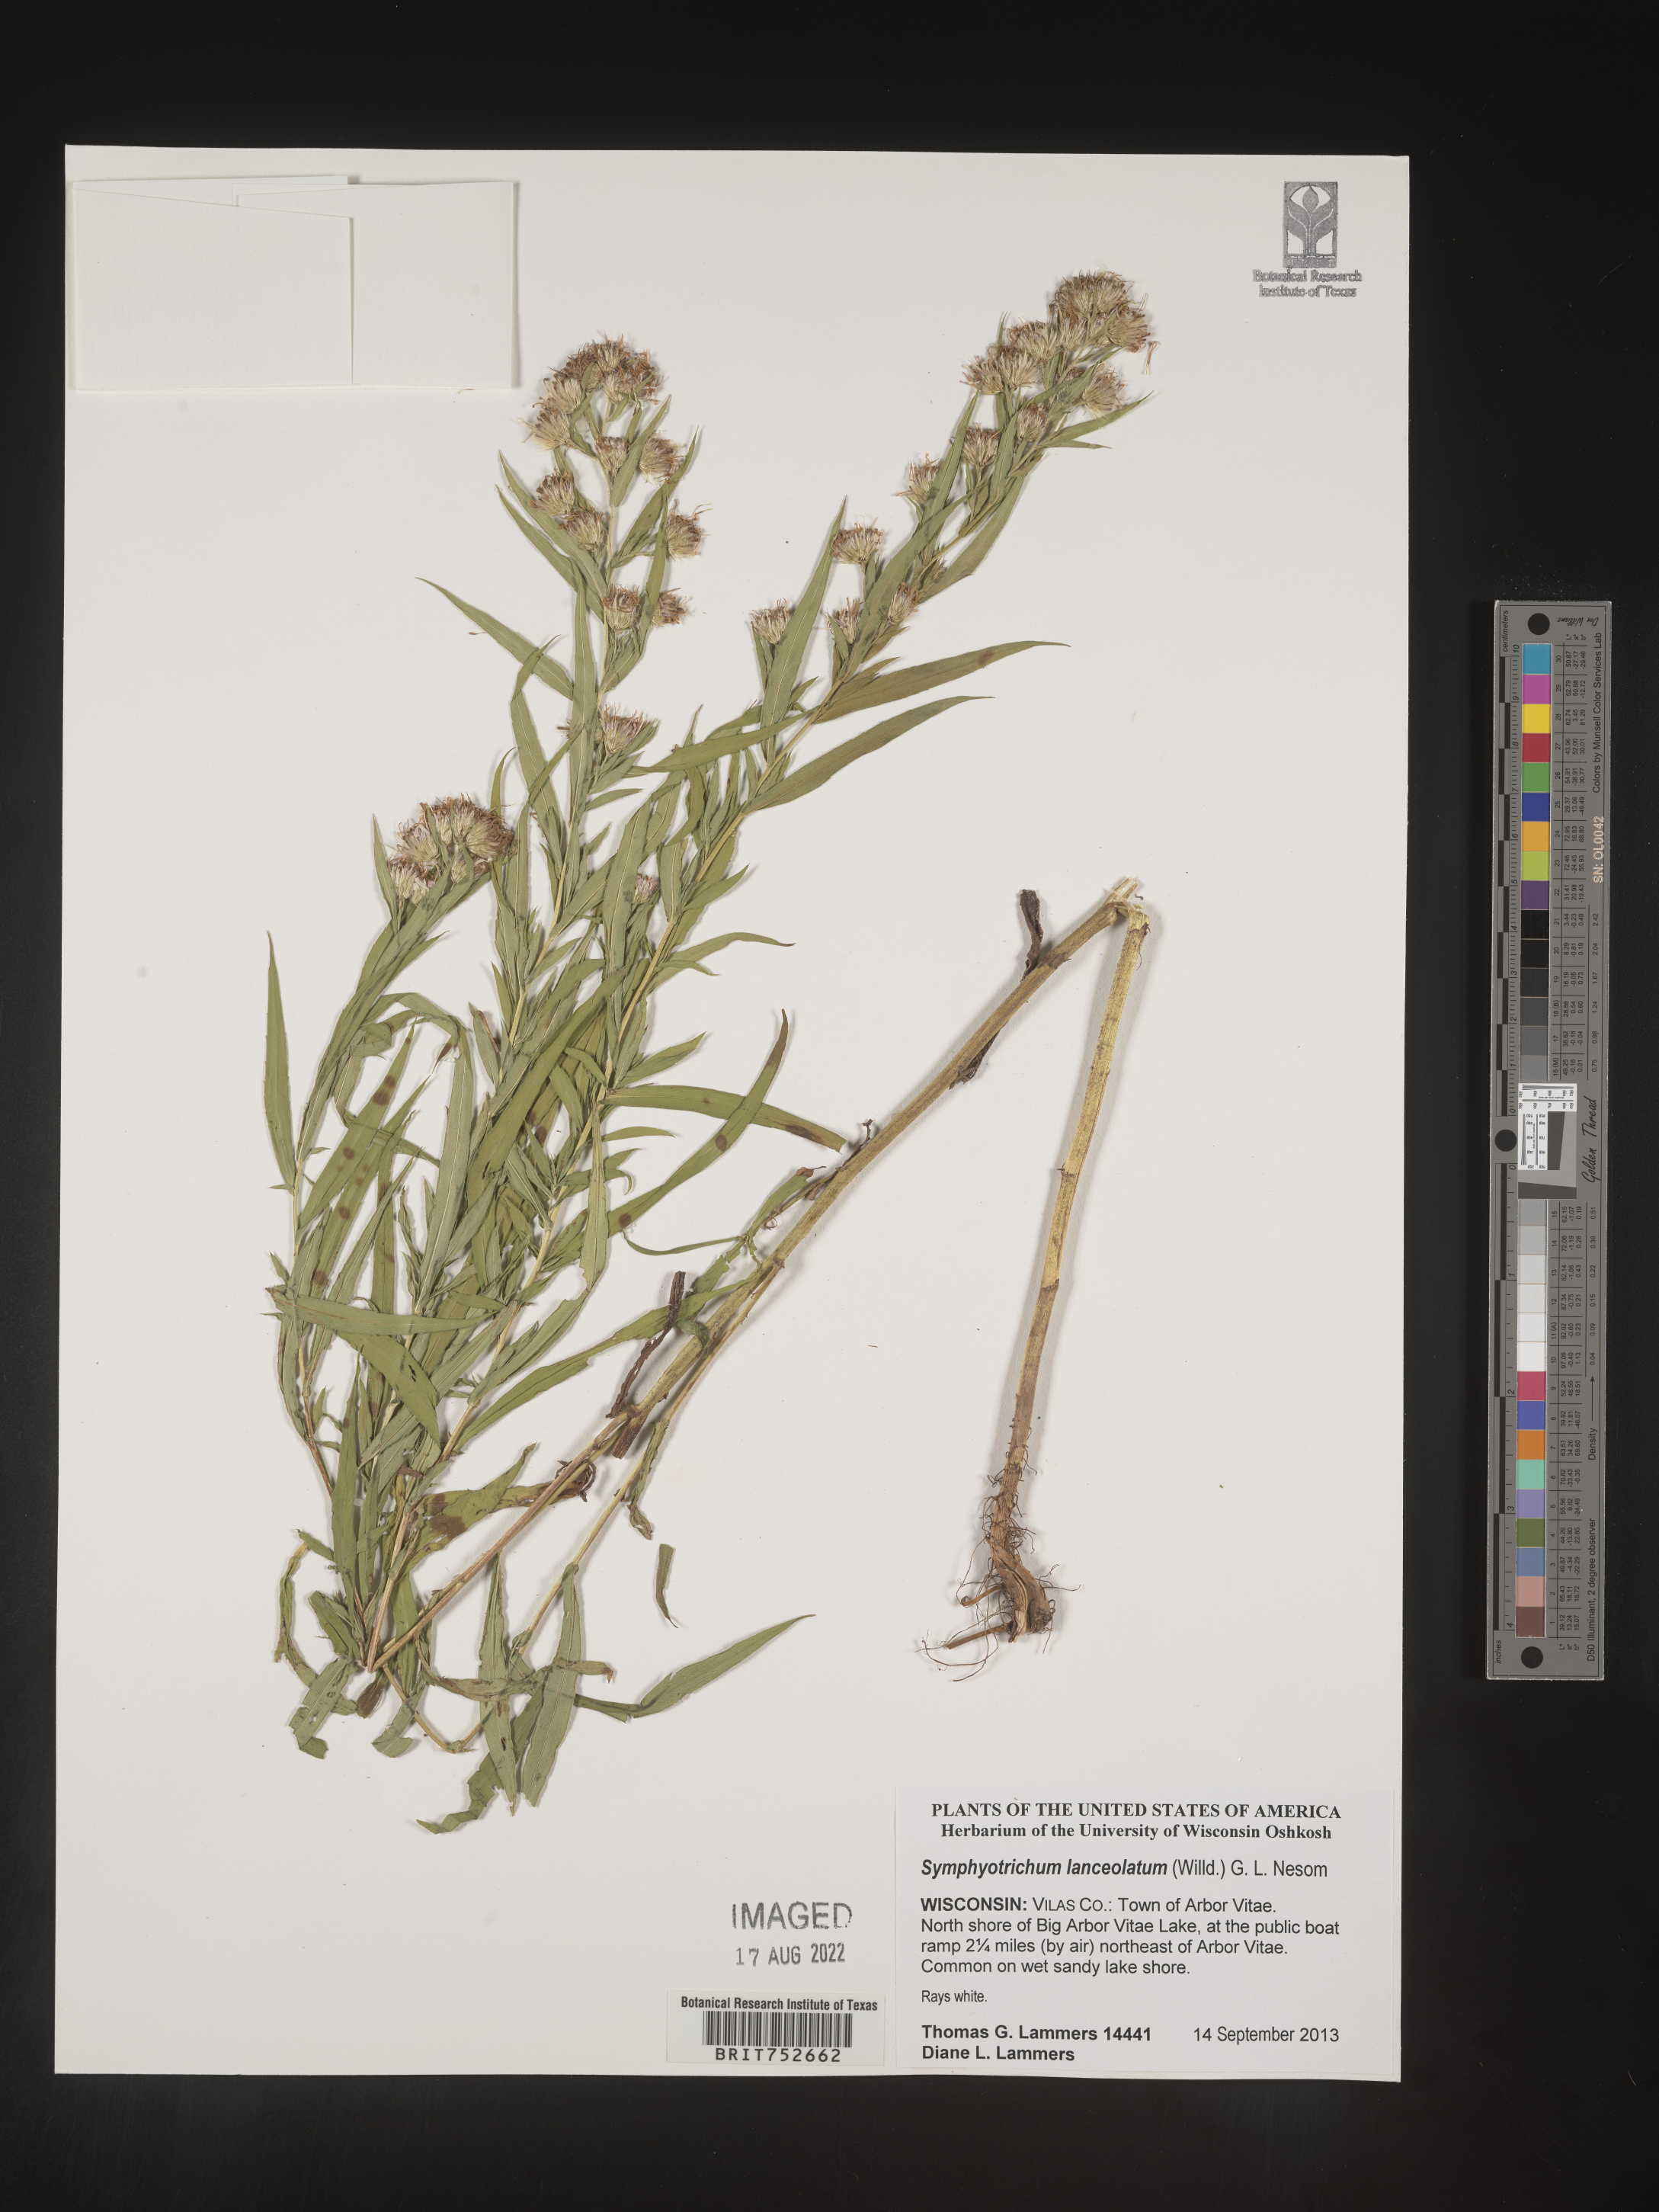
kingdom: Plantae
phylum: Tracheophyta
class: Magnoliopsida
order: Asterales
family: Asteraceae
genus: Symphyotrichum
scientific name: Symphyotrichum lanceolatum
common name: Panicled aster
